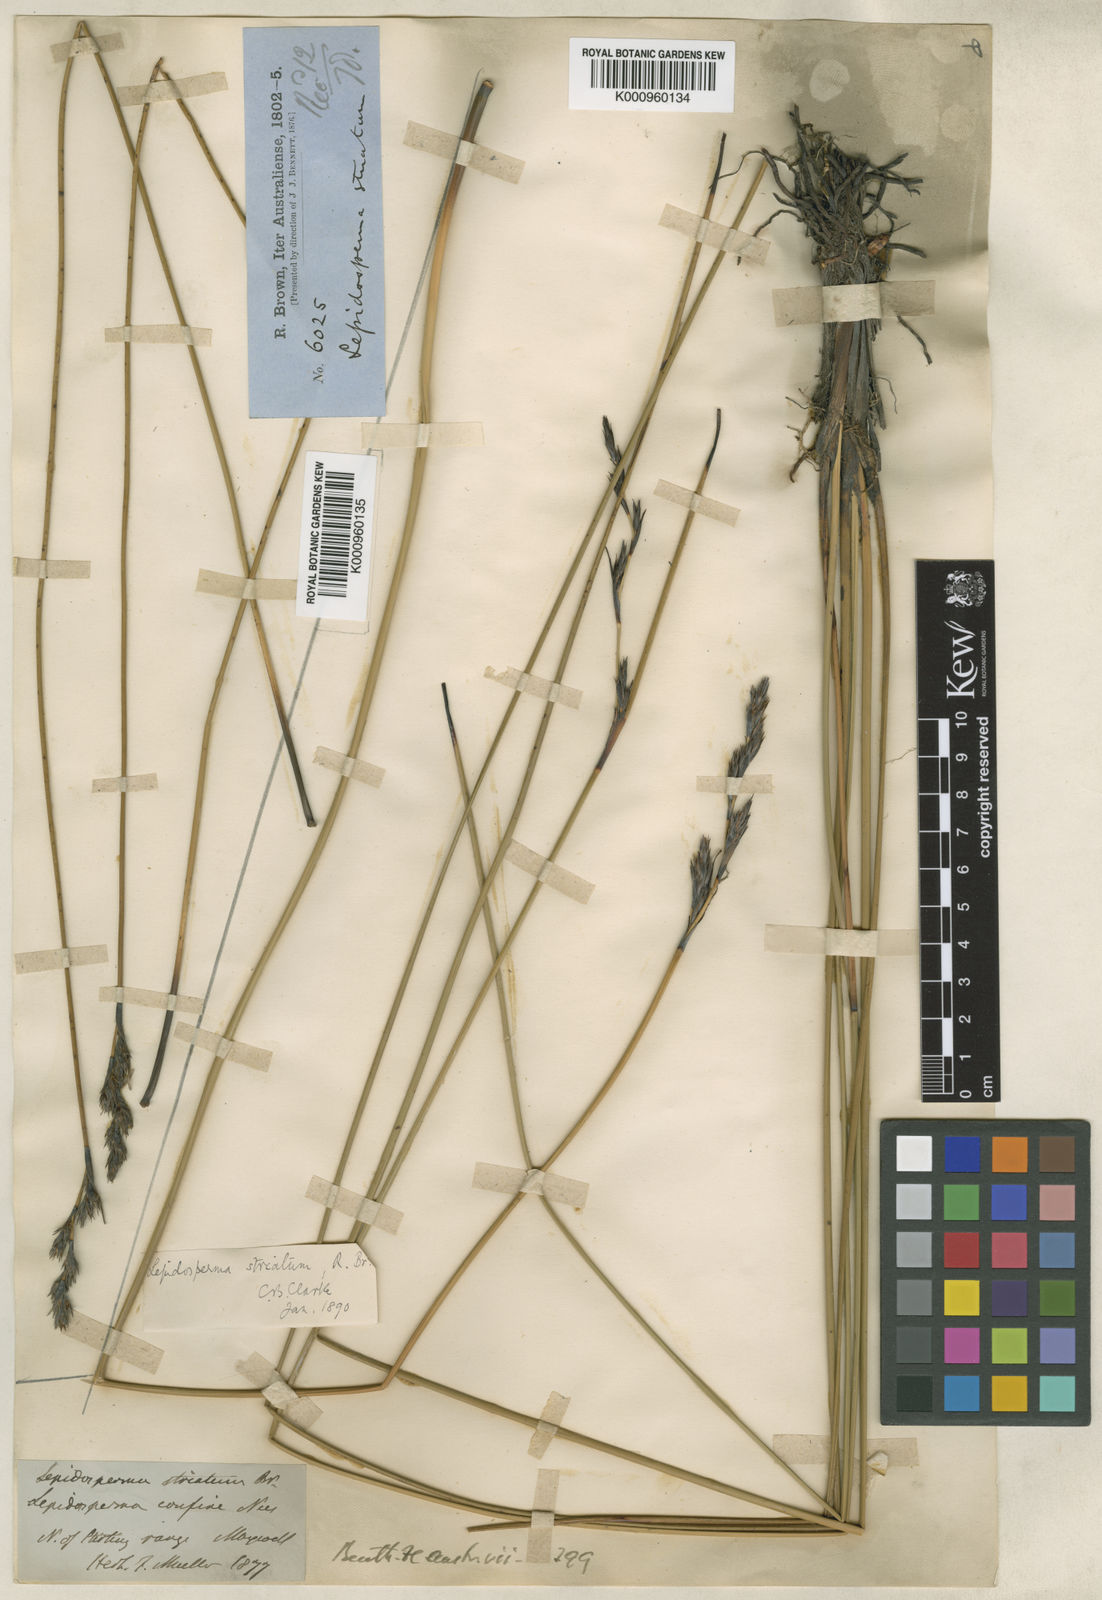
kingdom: Plantae
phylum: Tracheophyta
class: Liliopsida
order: Poales
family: Cyperaceae
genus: Lepidosperma
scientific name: Lepidosperma striatum
